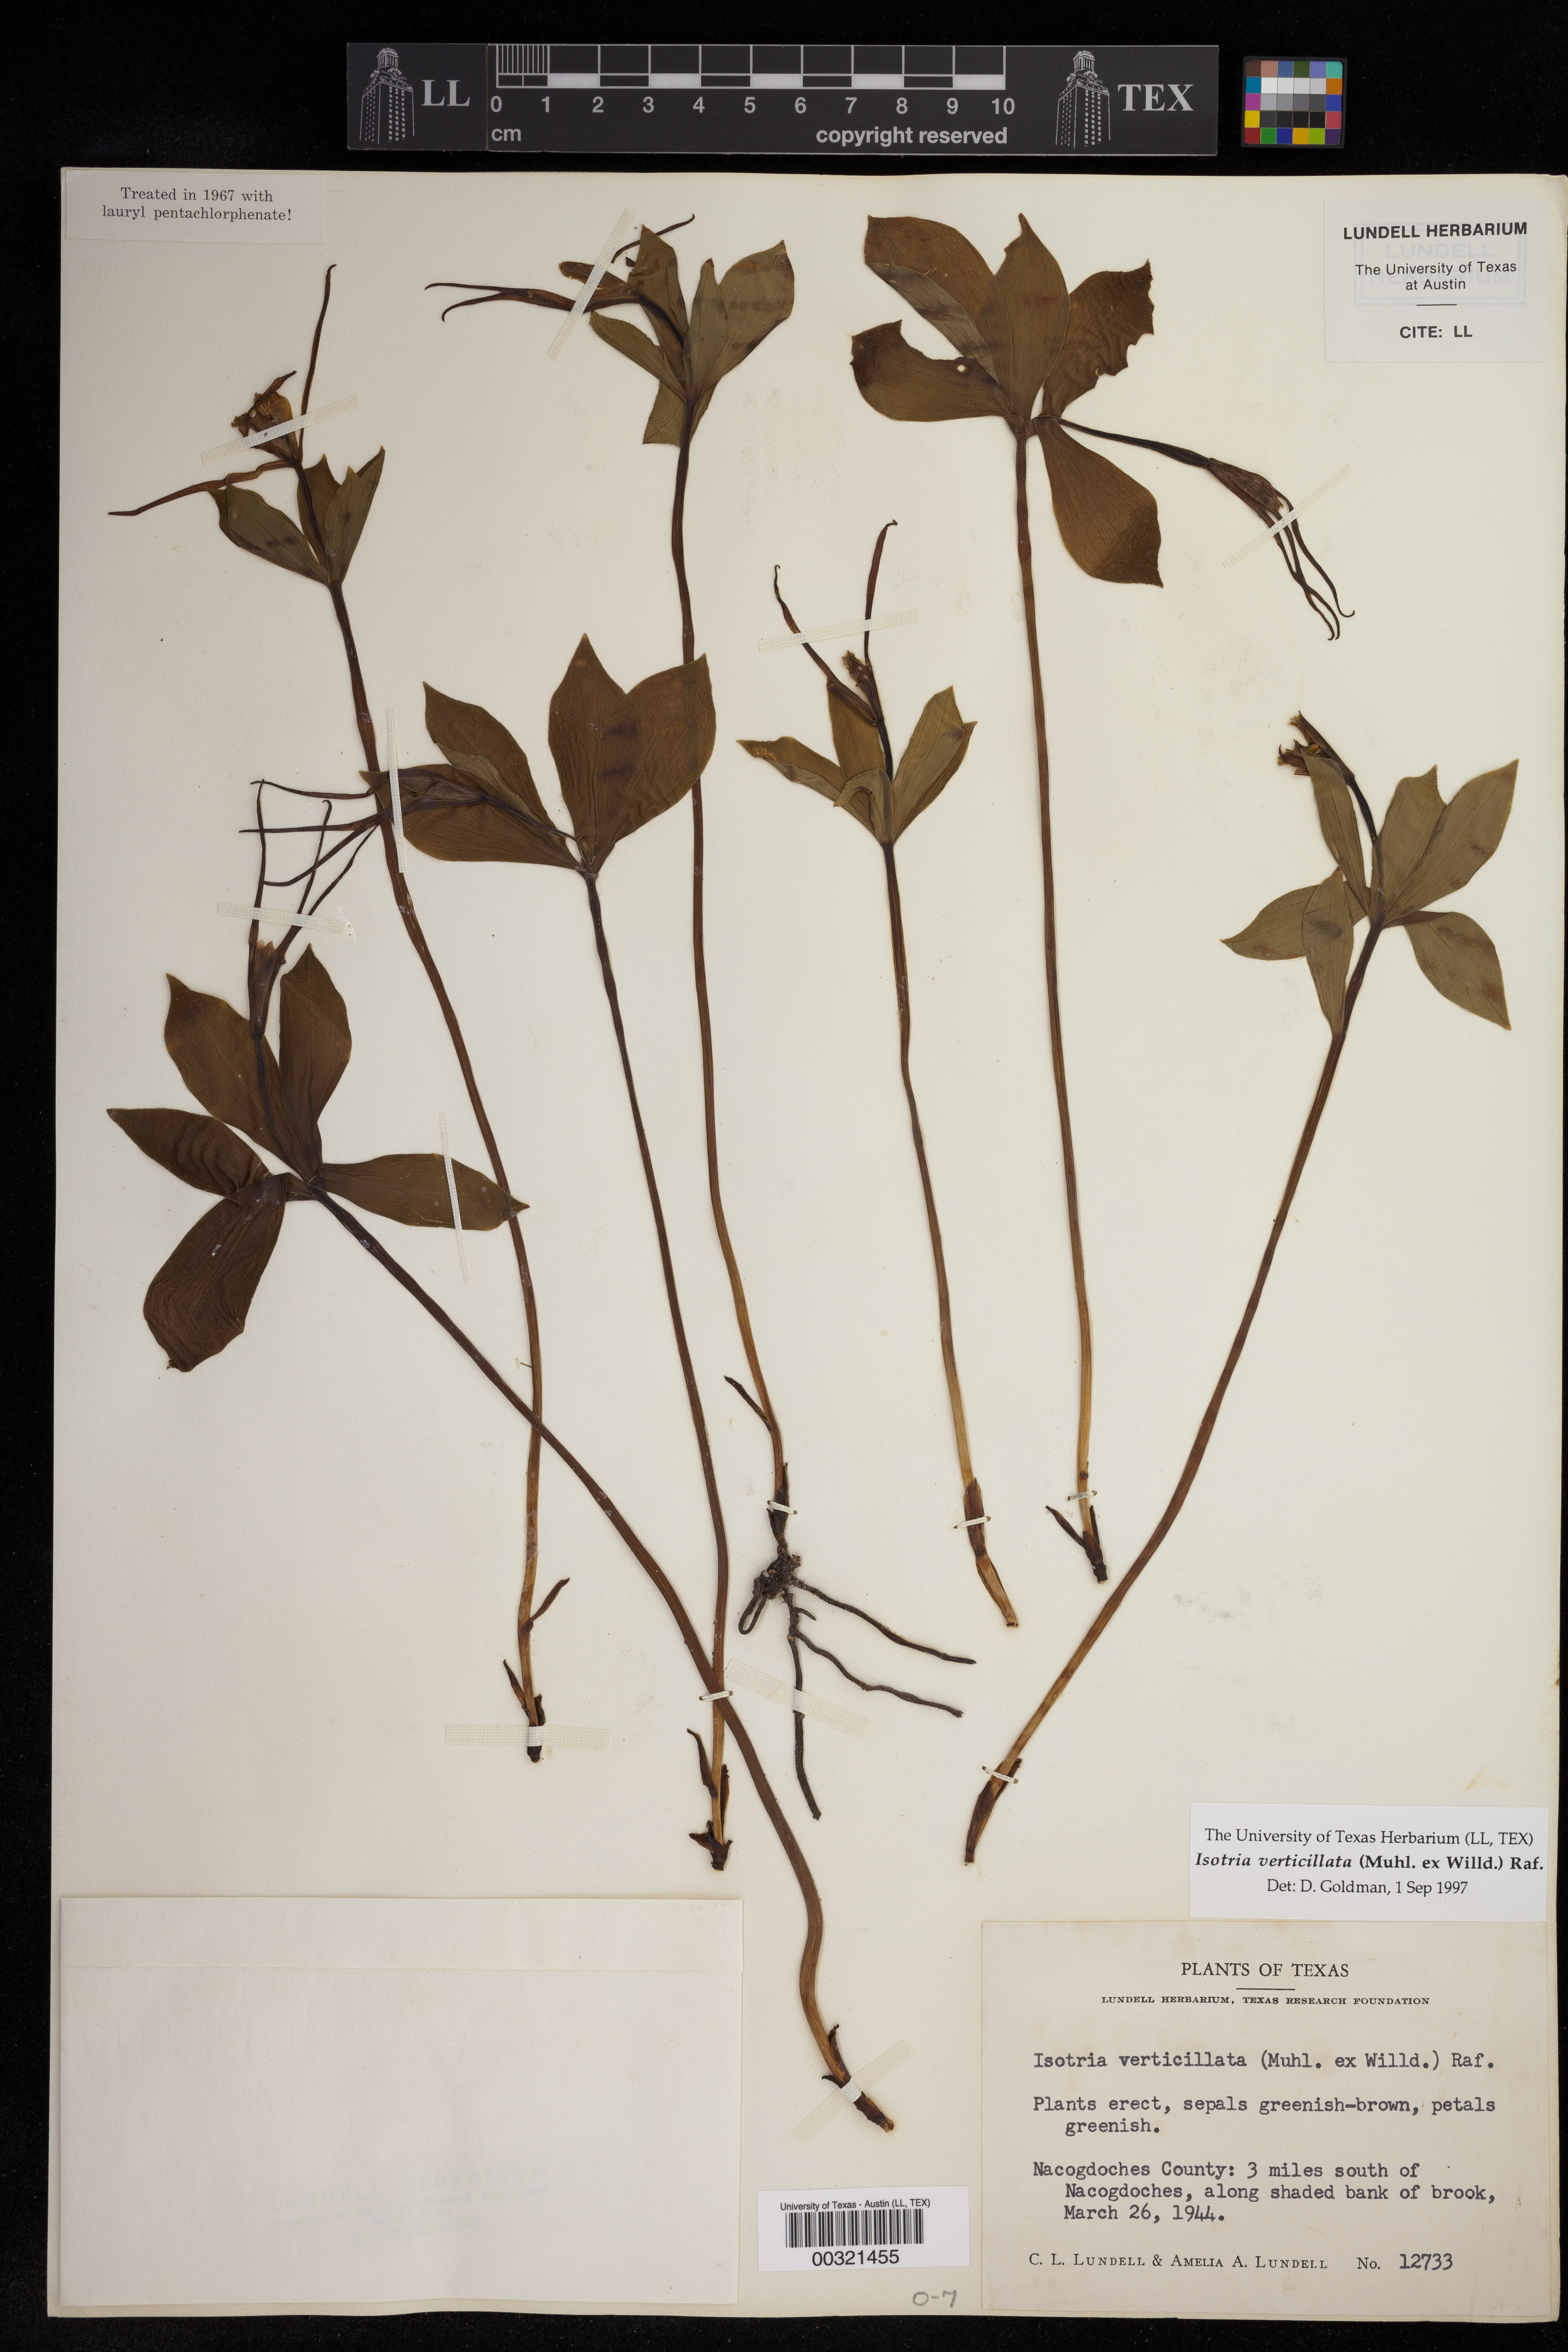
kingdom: Plantae
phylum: Tracheophyta
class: Liliopsida
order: Asparagales
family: Orchidaceae
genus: Isotria
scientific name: Isotria verticillata
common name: Large whorled pogonia
